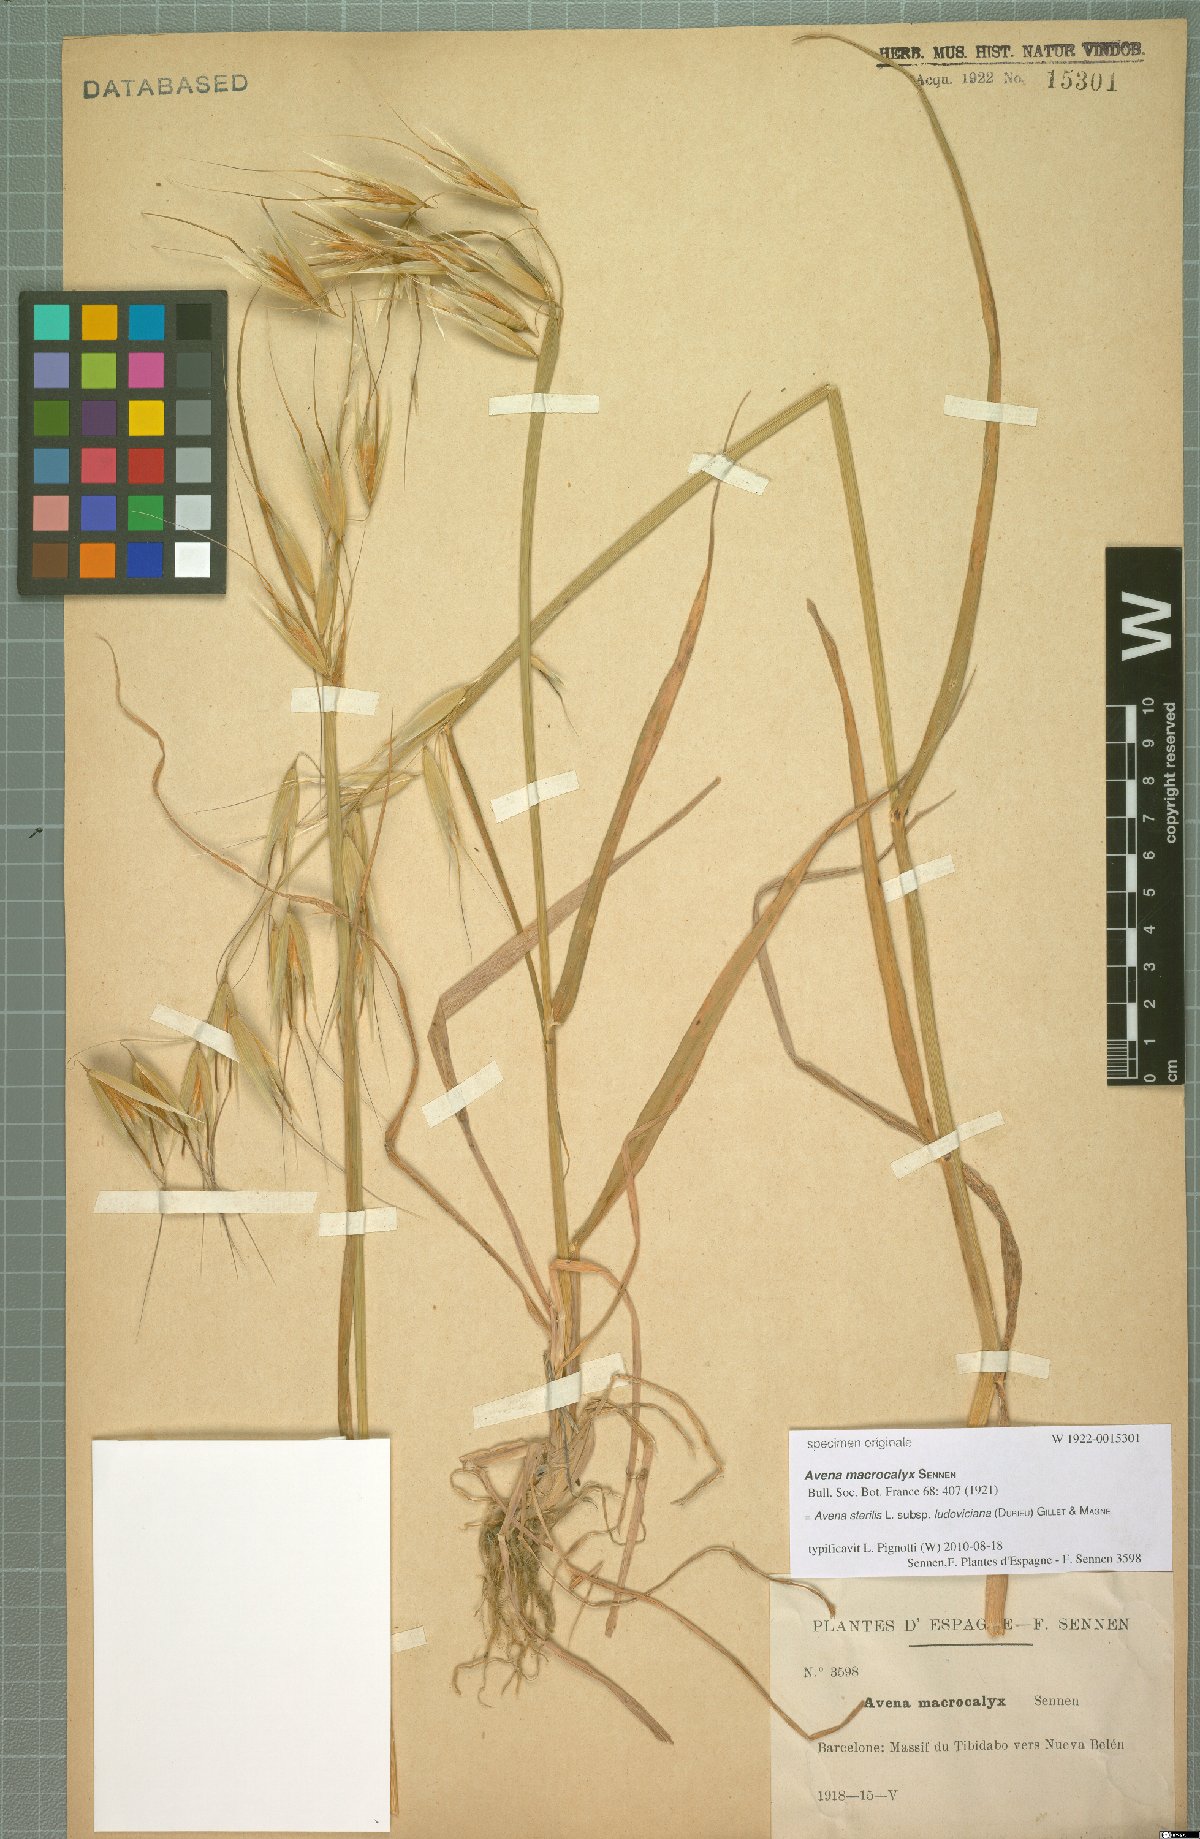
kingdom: Plantae
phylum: Tracheophyta
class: Liliopsida
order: Poales
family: Poaceae
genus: Avena
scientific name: Avena sterilis
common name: Animated oat
